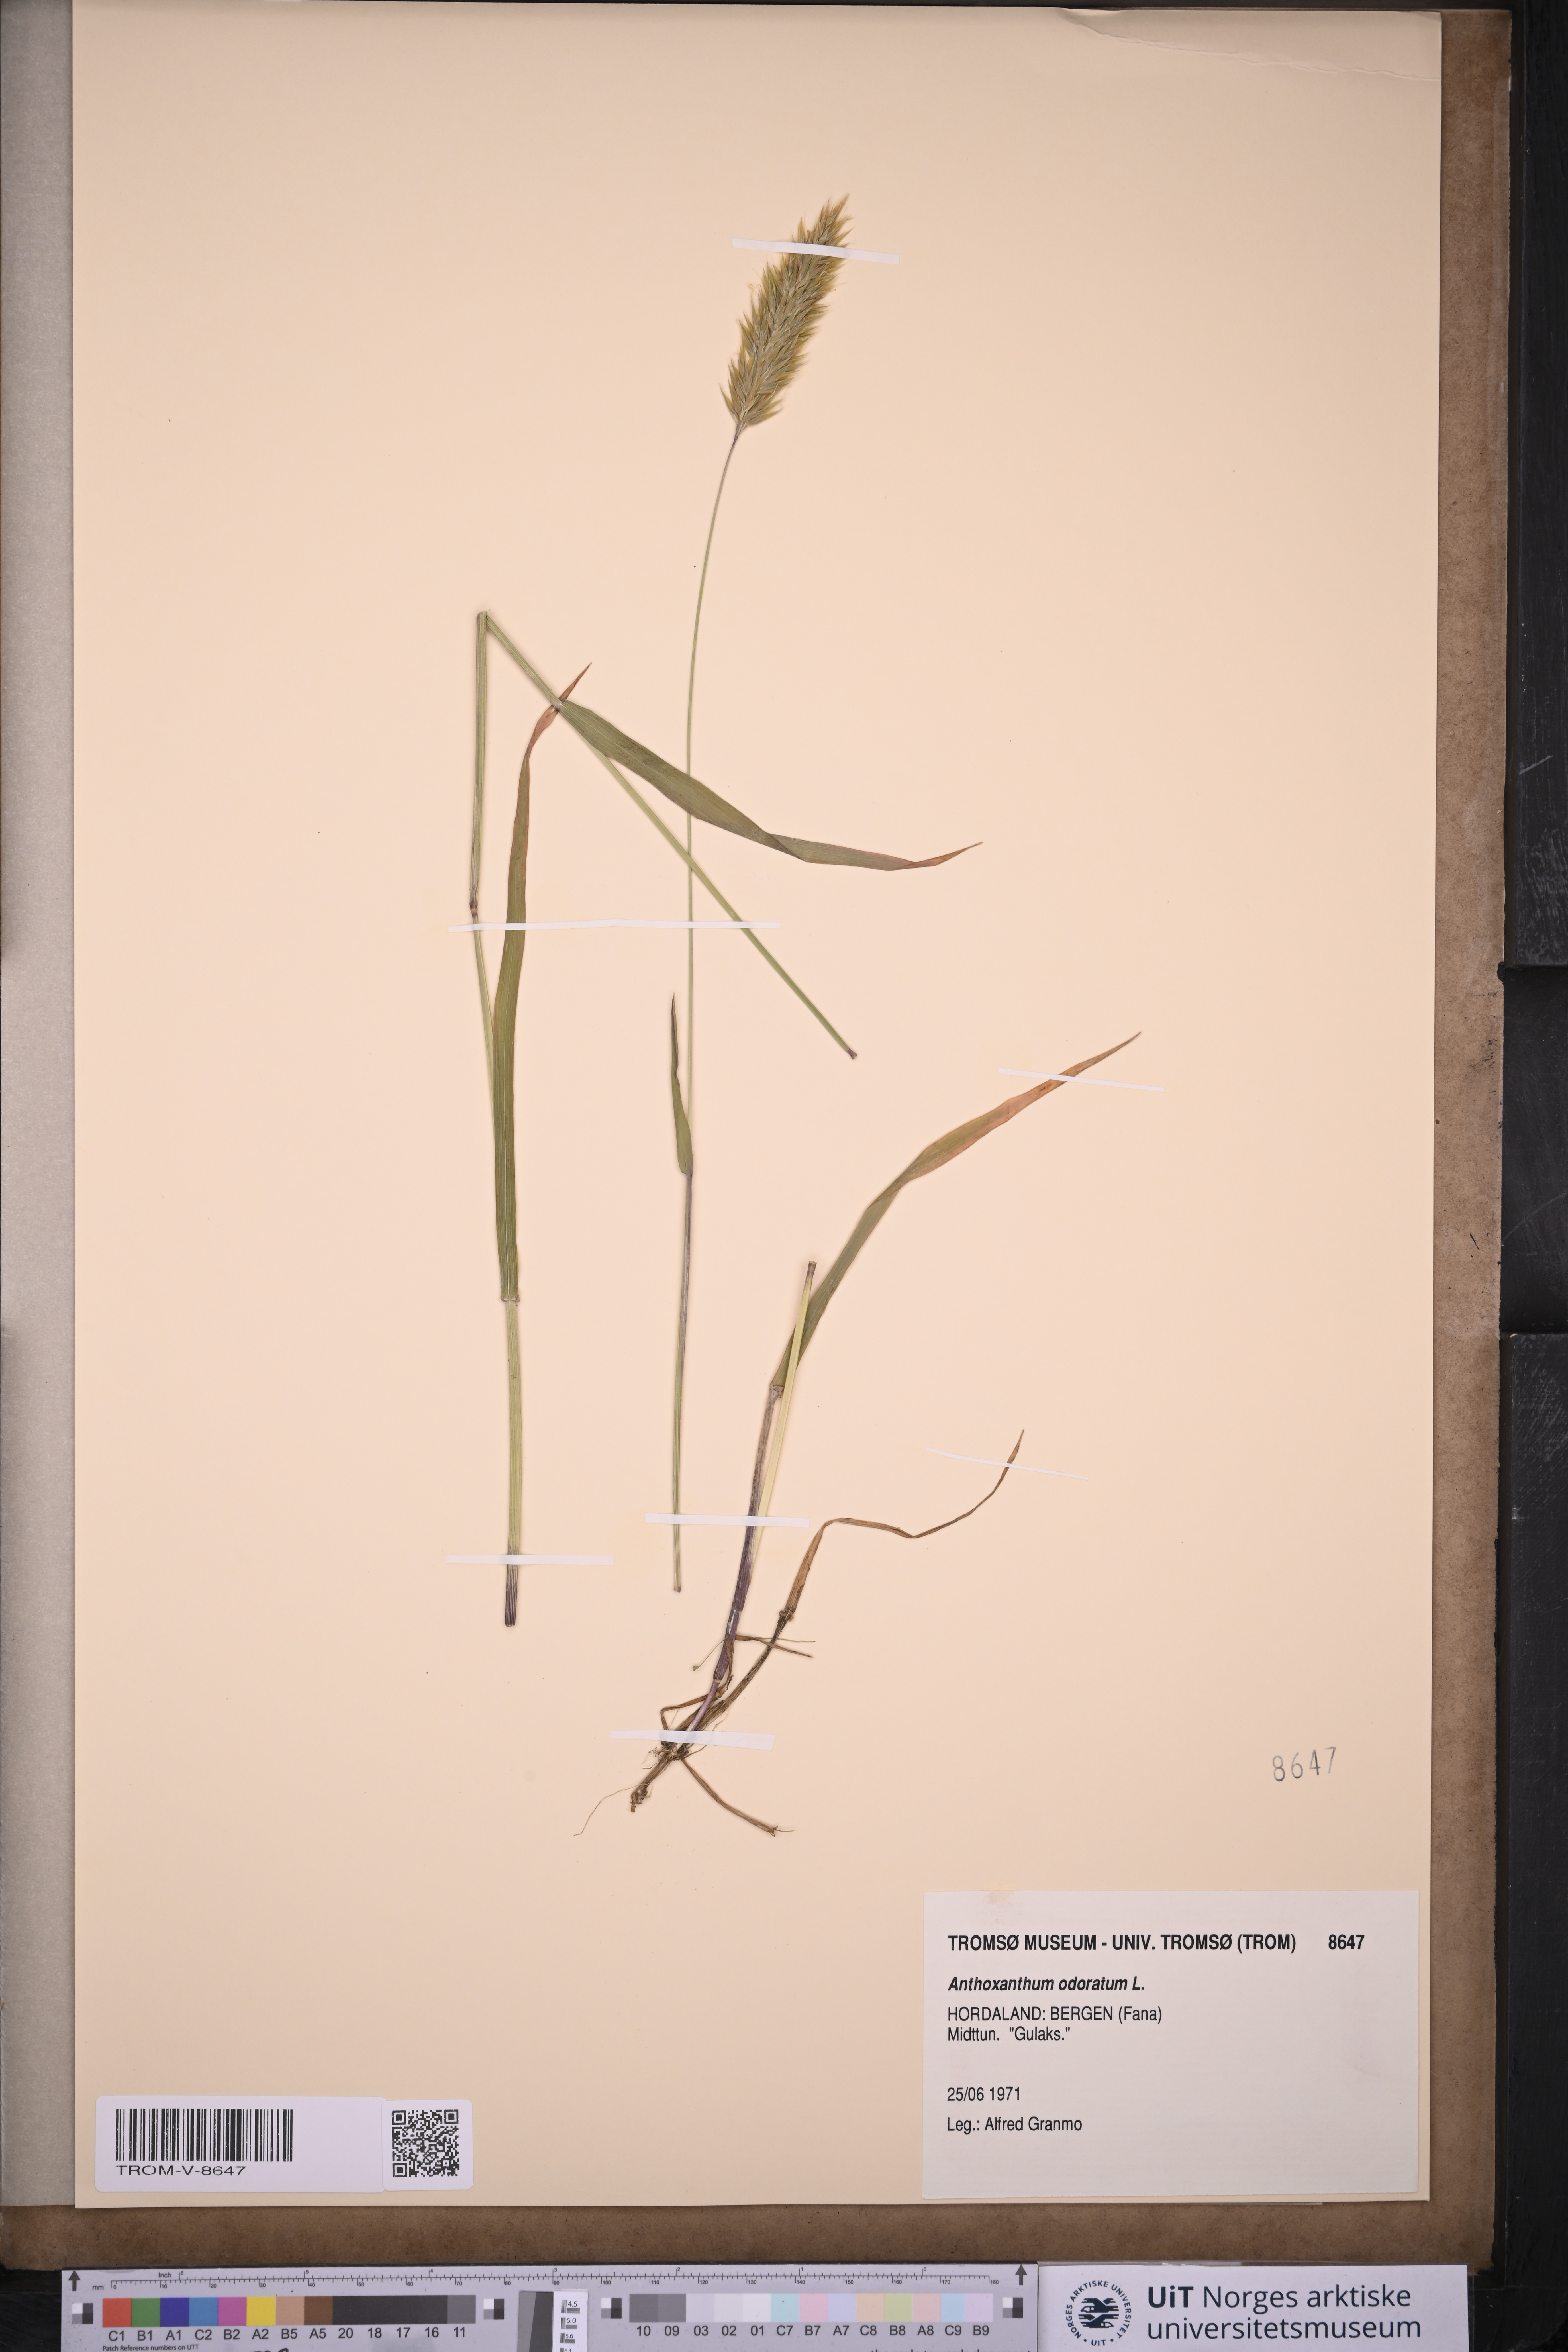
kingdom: Plantae
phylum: Tracheophyta
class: Liliopsida
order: Poales
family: Poaceae
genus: Anthoxanthum
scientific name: Anthoxanthum odoratum
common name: Sweet vernalgrass
